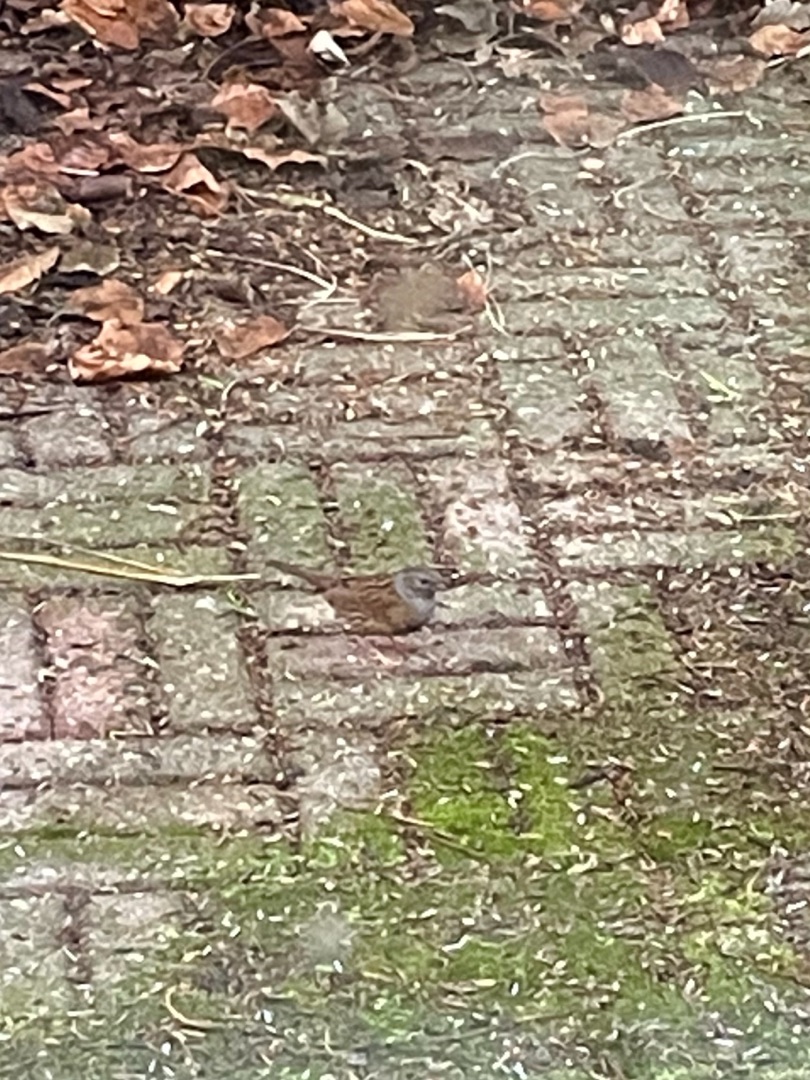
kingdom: Animalia
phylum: Chordata
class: Aves
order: Passeriformes
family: Prunellidae
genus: Prunella
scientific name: Prunella modularis
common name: Jernspurv
